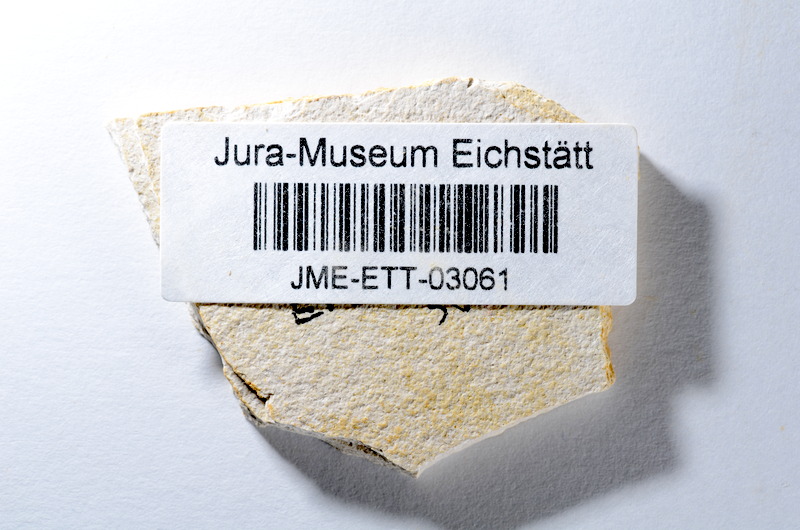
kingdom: Animalia
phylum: Chordata
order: Salmoniformes
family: Orthogonikleithridae
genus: Orthogonikleithrus
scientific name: Orthogonikleithrus hoelli
